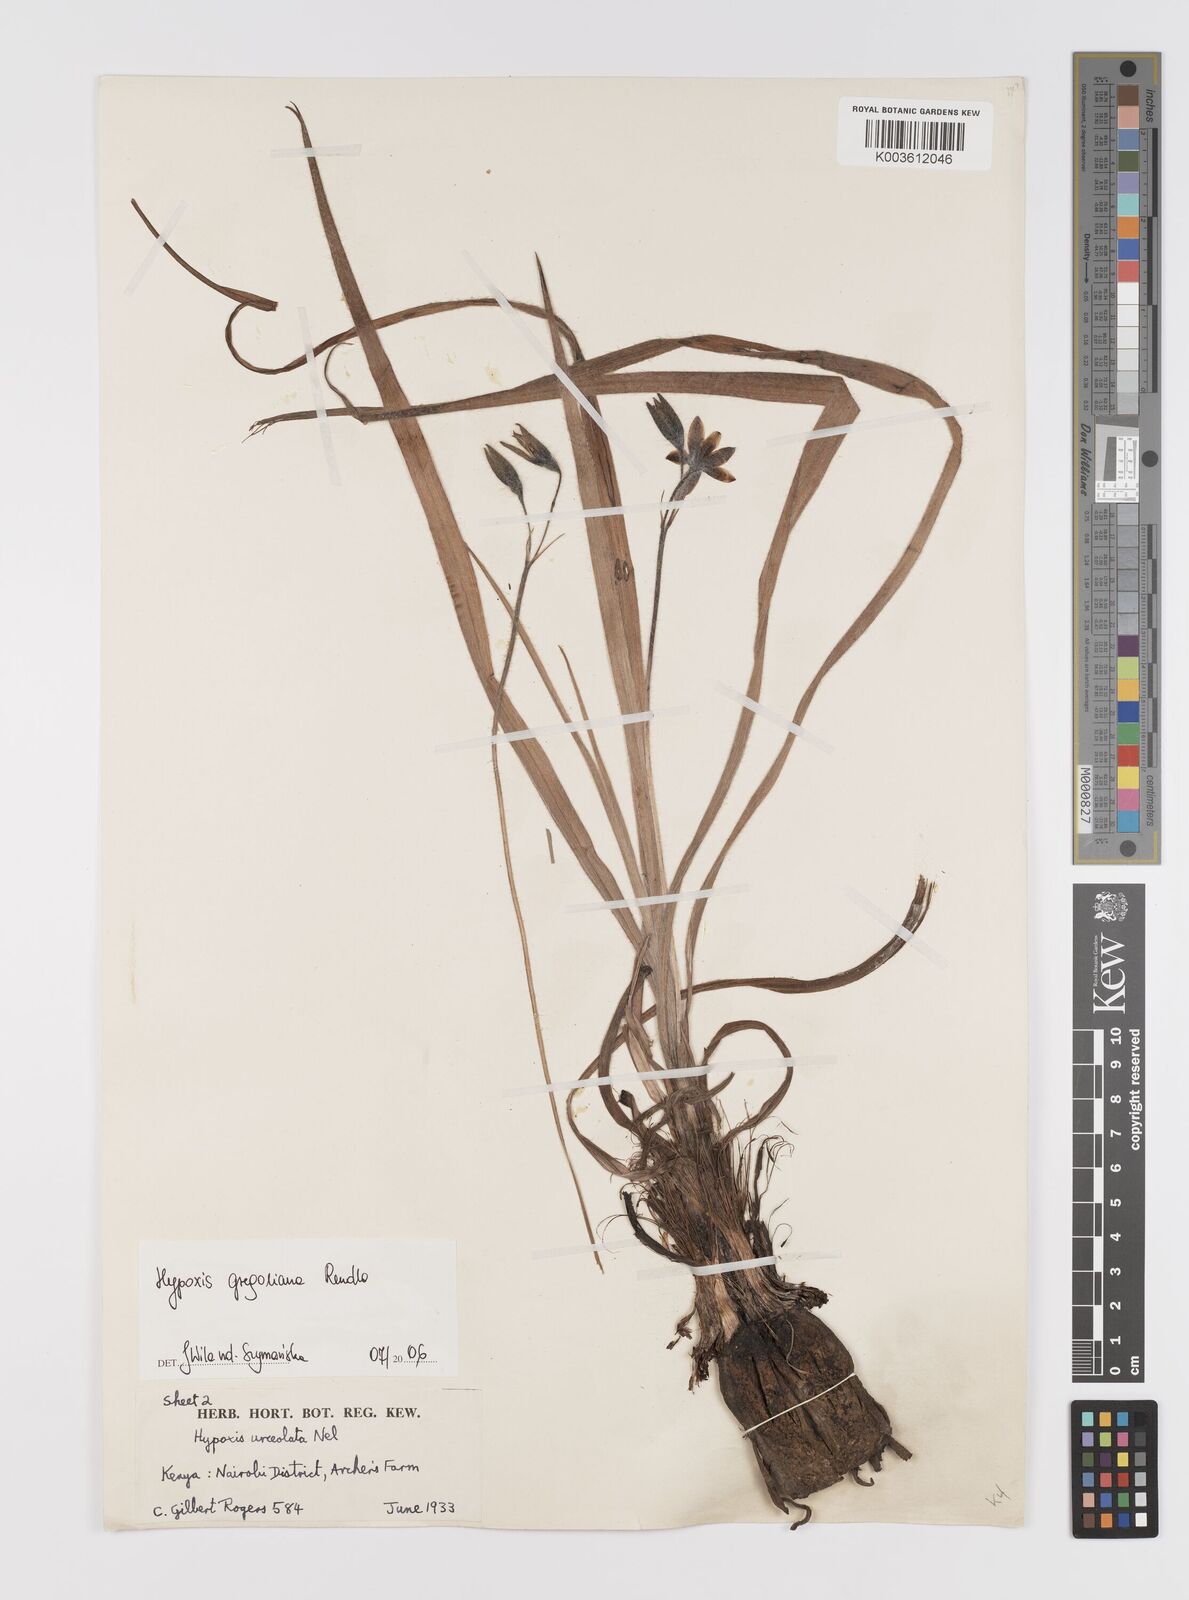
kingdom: Plantae
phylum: Tracheophyta
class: Liliopsida
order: Asparagales
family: Hypoxidaceae
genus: Hypoxis
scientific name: Hypoxis gregoriana
